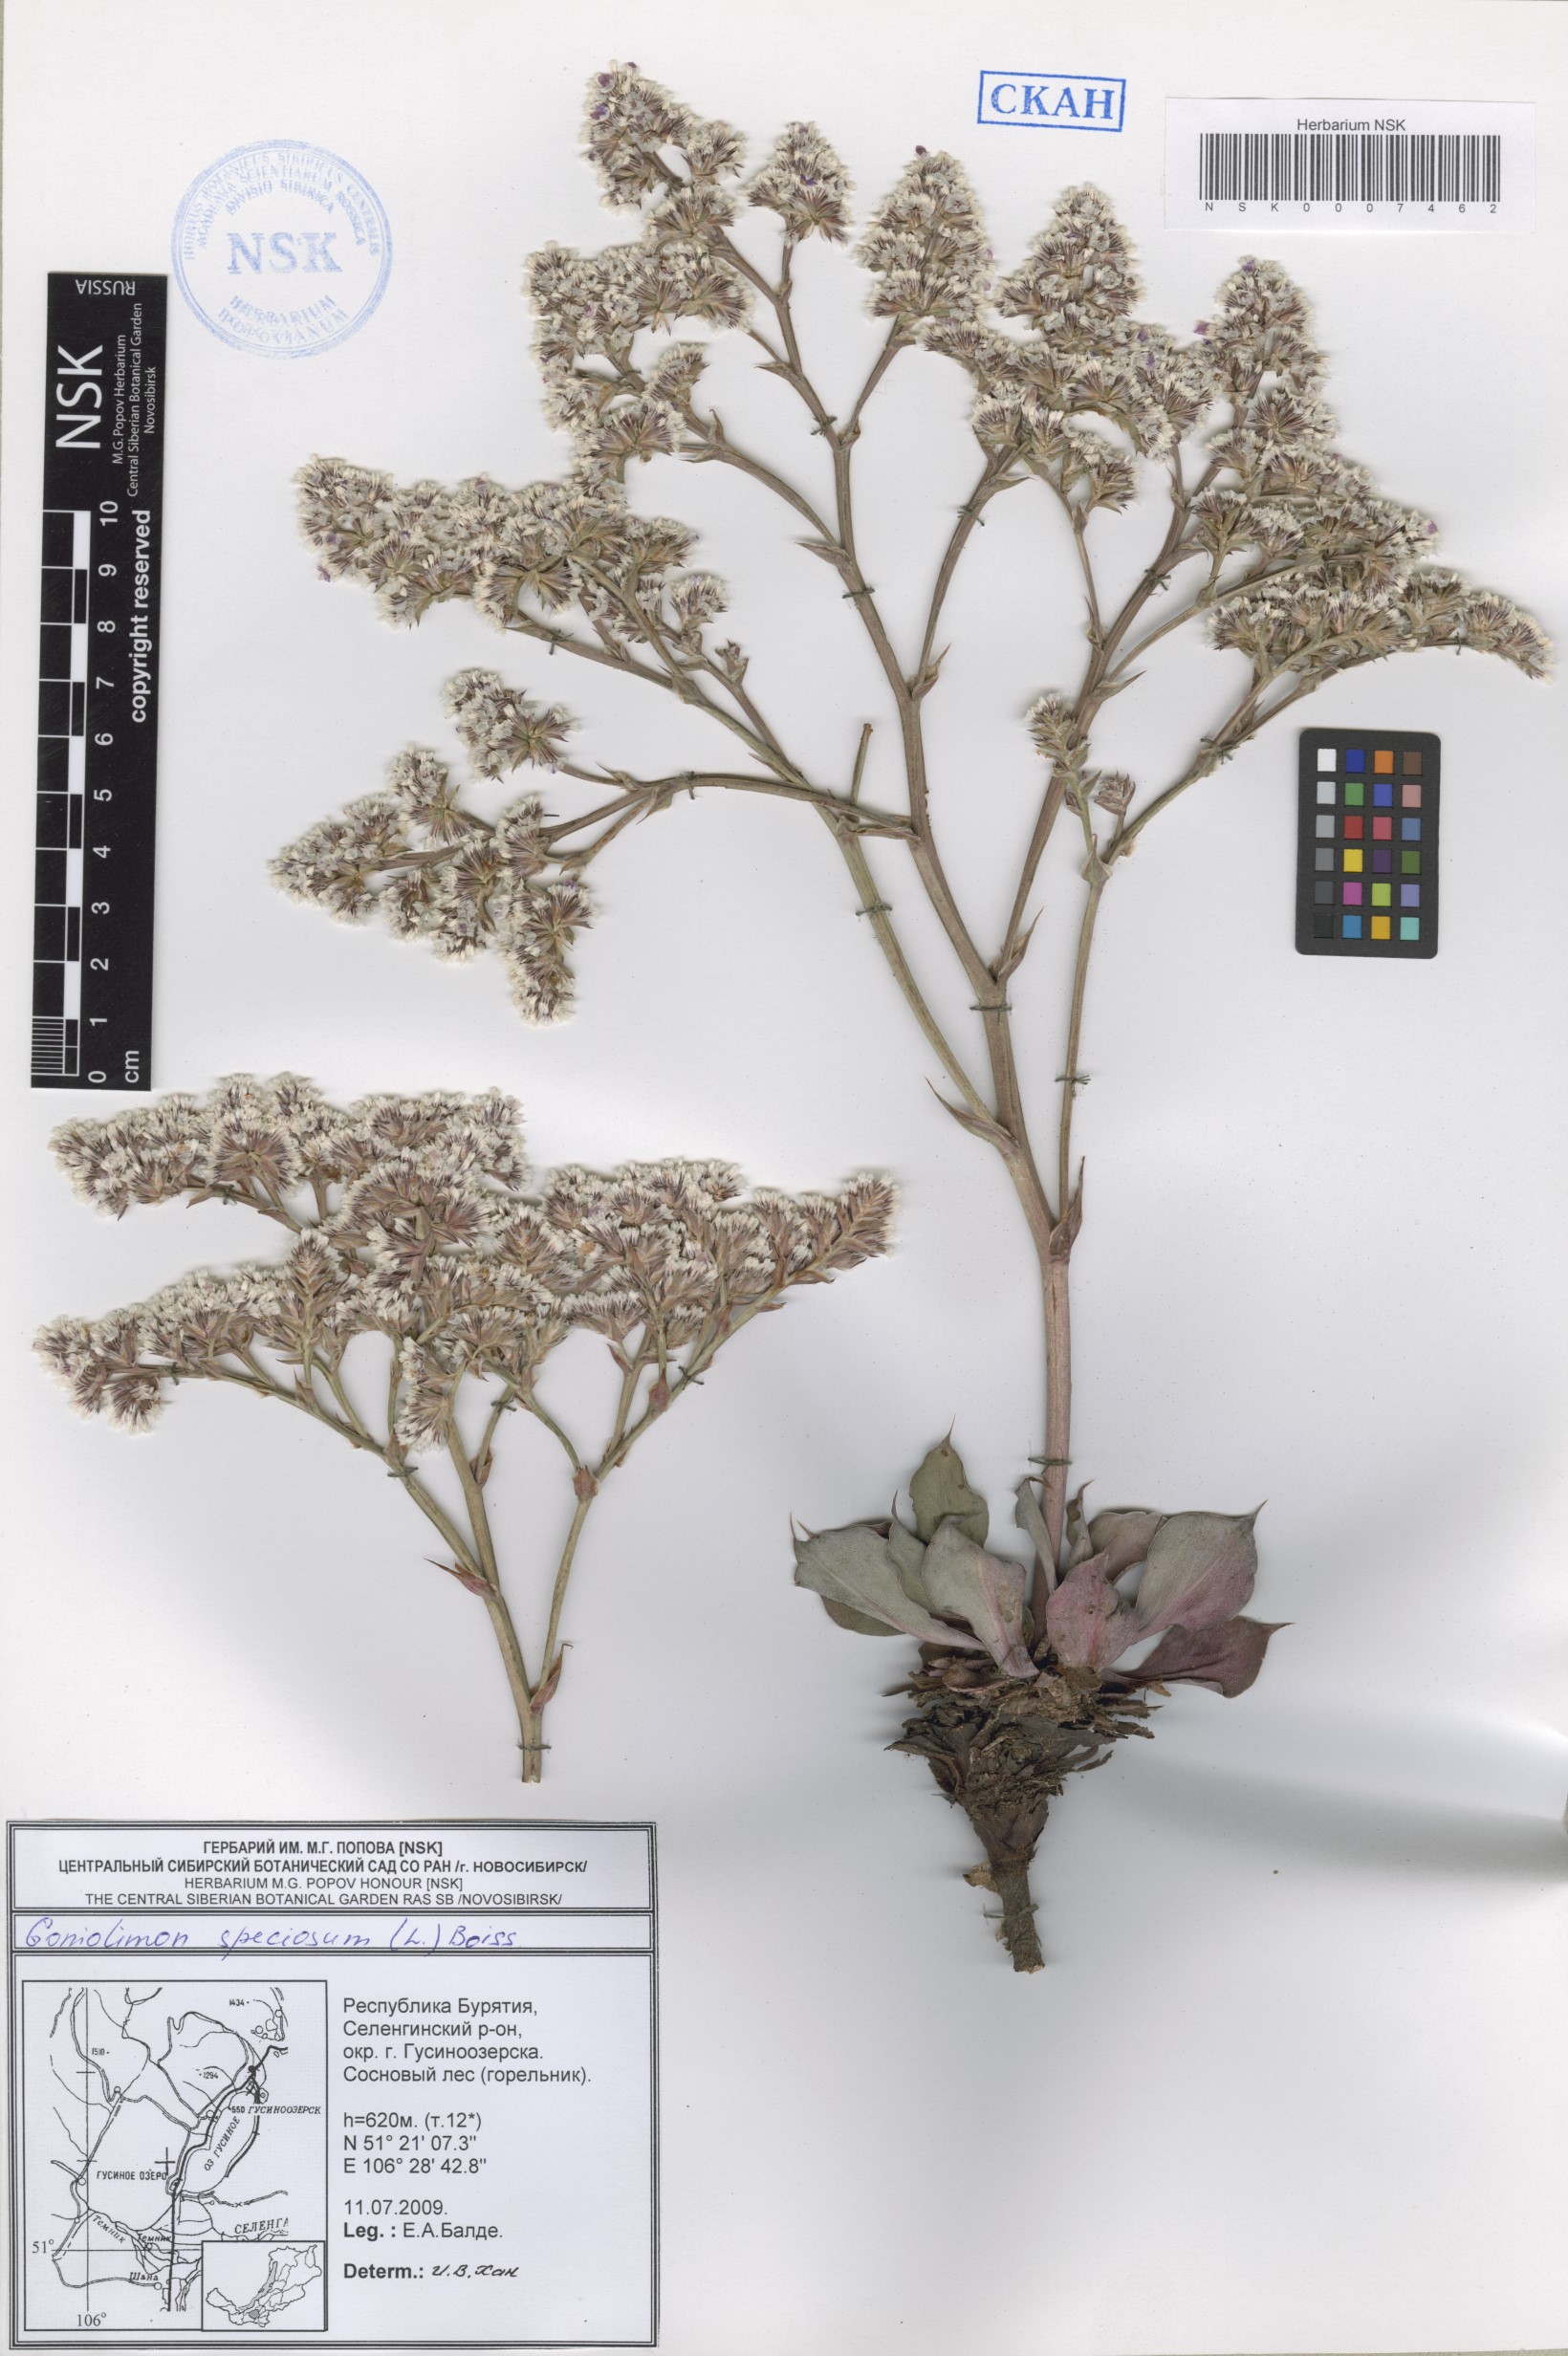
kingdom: Plantae
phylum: Tracheophyta
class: Magnoliopsida
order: Caryophyllales
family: Plumbaginaceae
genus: Goniolimon
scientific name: Goniolimon speciosum
